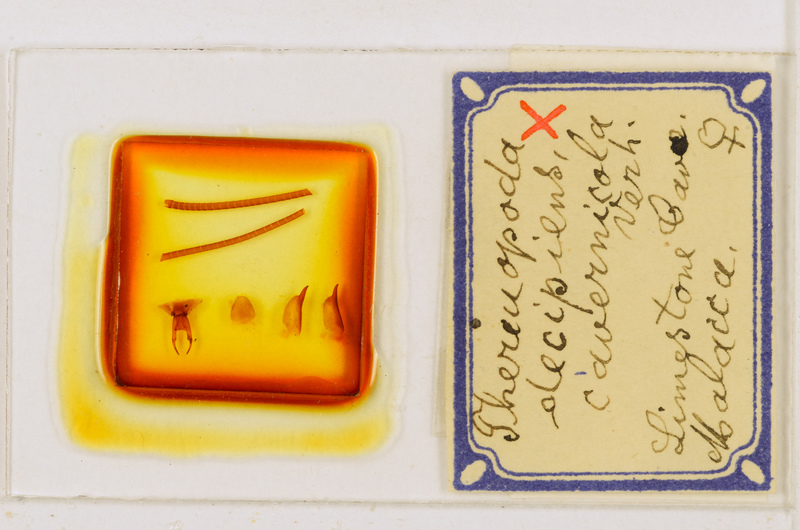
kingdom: Animalia
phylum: Arthropoda
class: Chilopoda
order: Scutigeromorpha
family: Scutigeridae
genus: Thereuopoda
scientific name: Thereuopoda longicornis
